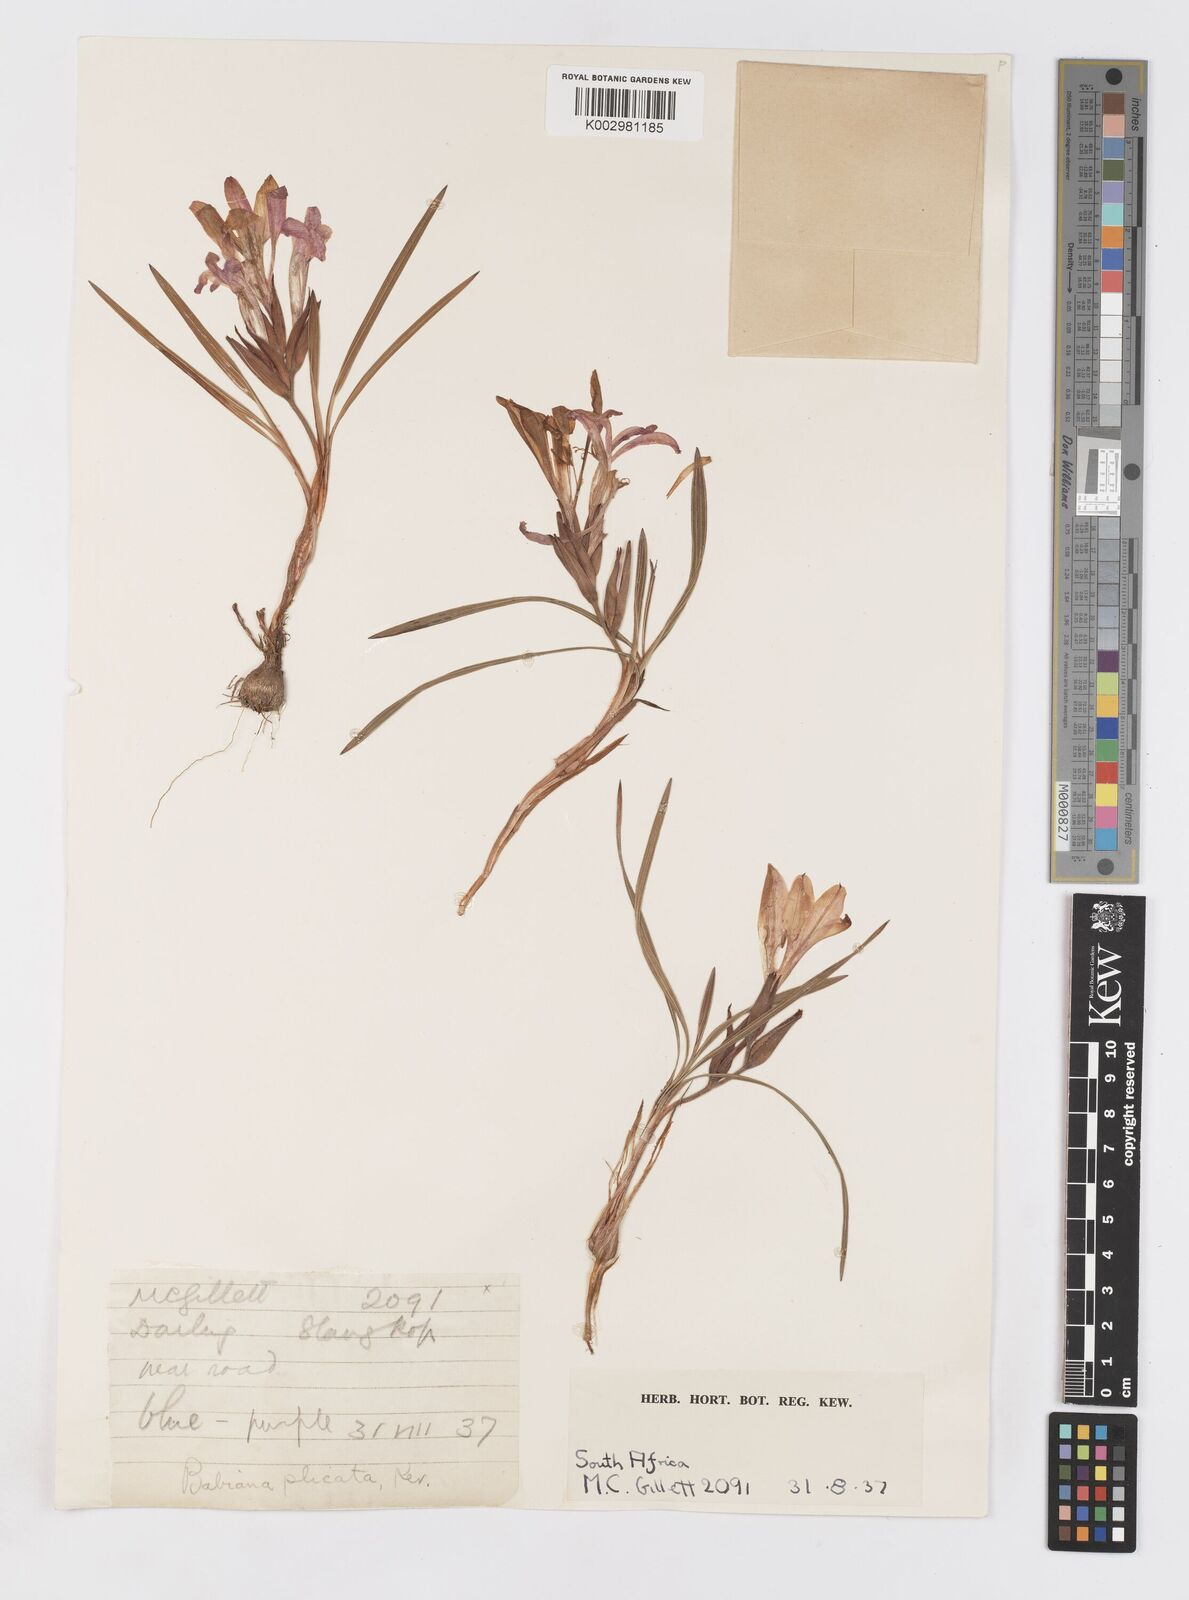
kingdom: Plantae
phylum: Tracheophyta
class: Liliopsida
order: Asparagales
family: Iridaceae
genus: Babiana
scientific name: Babiana fragrans
